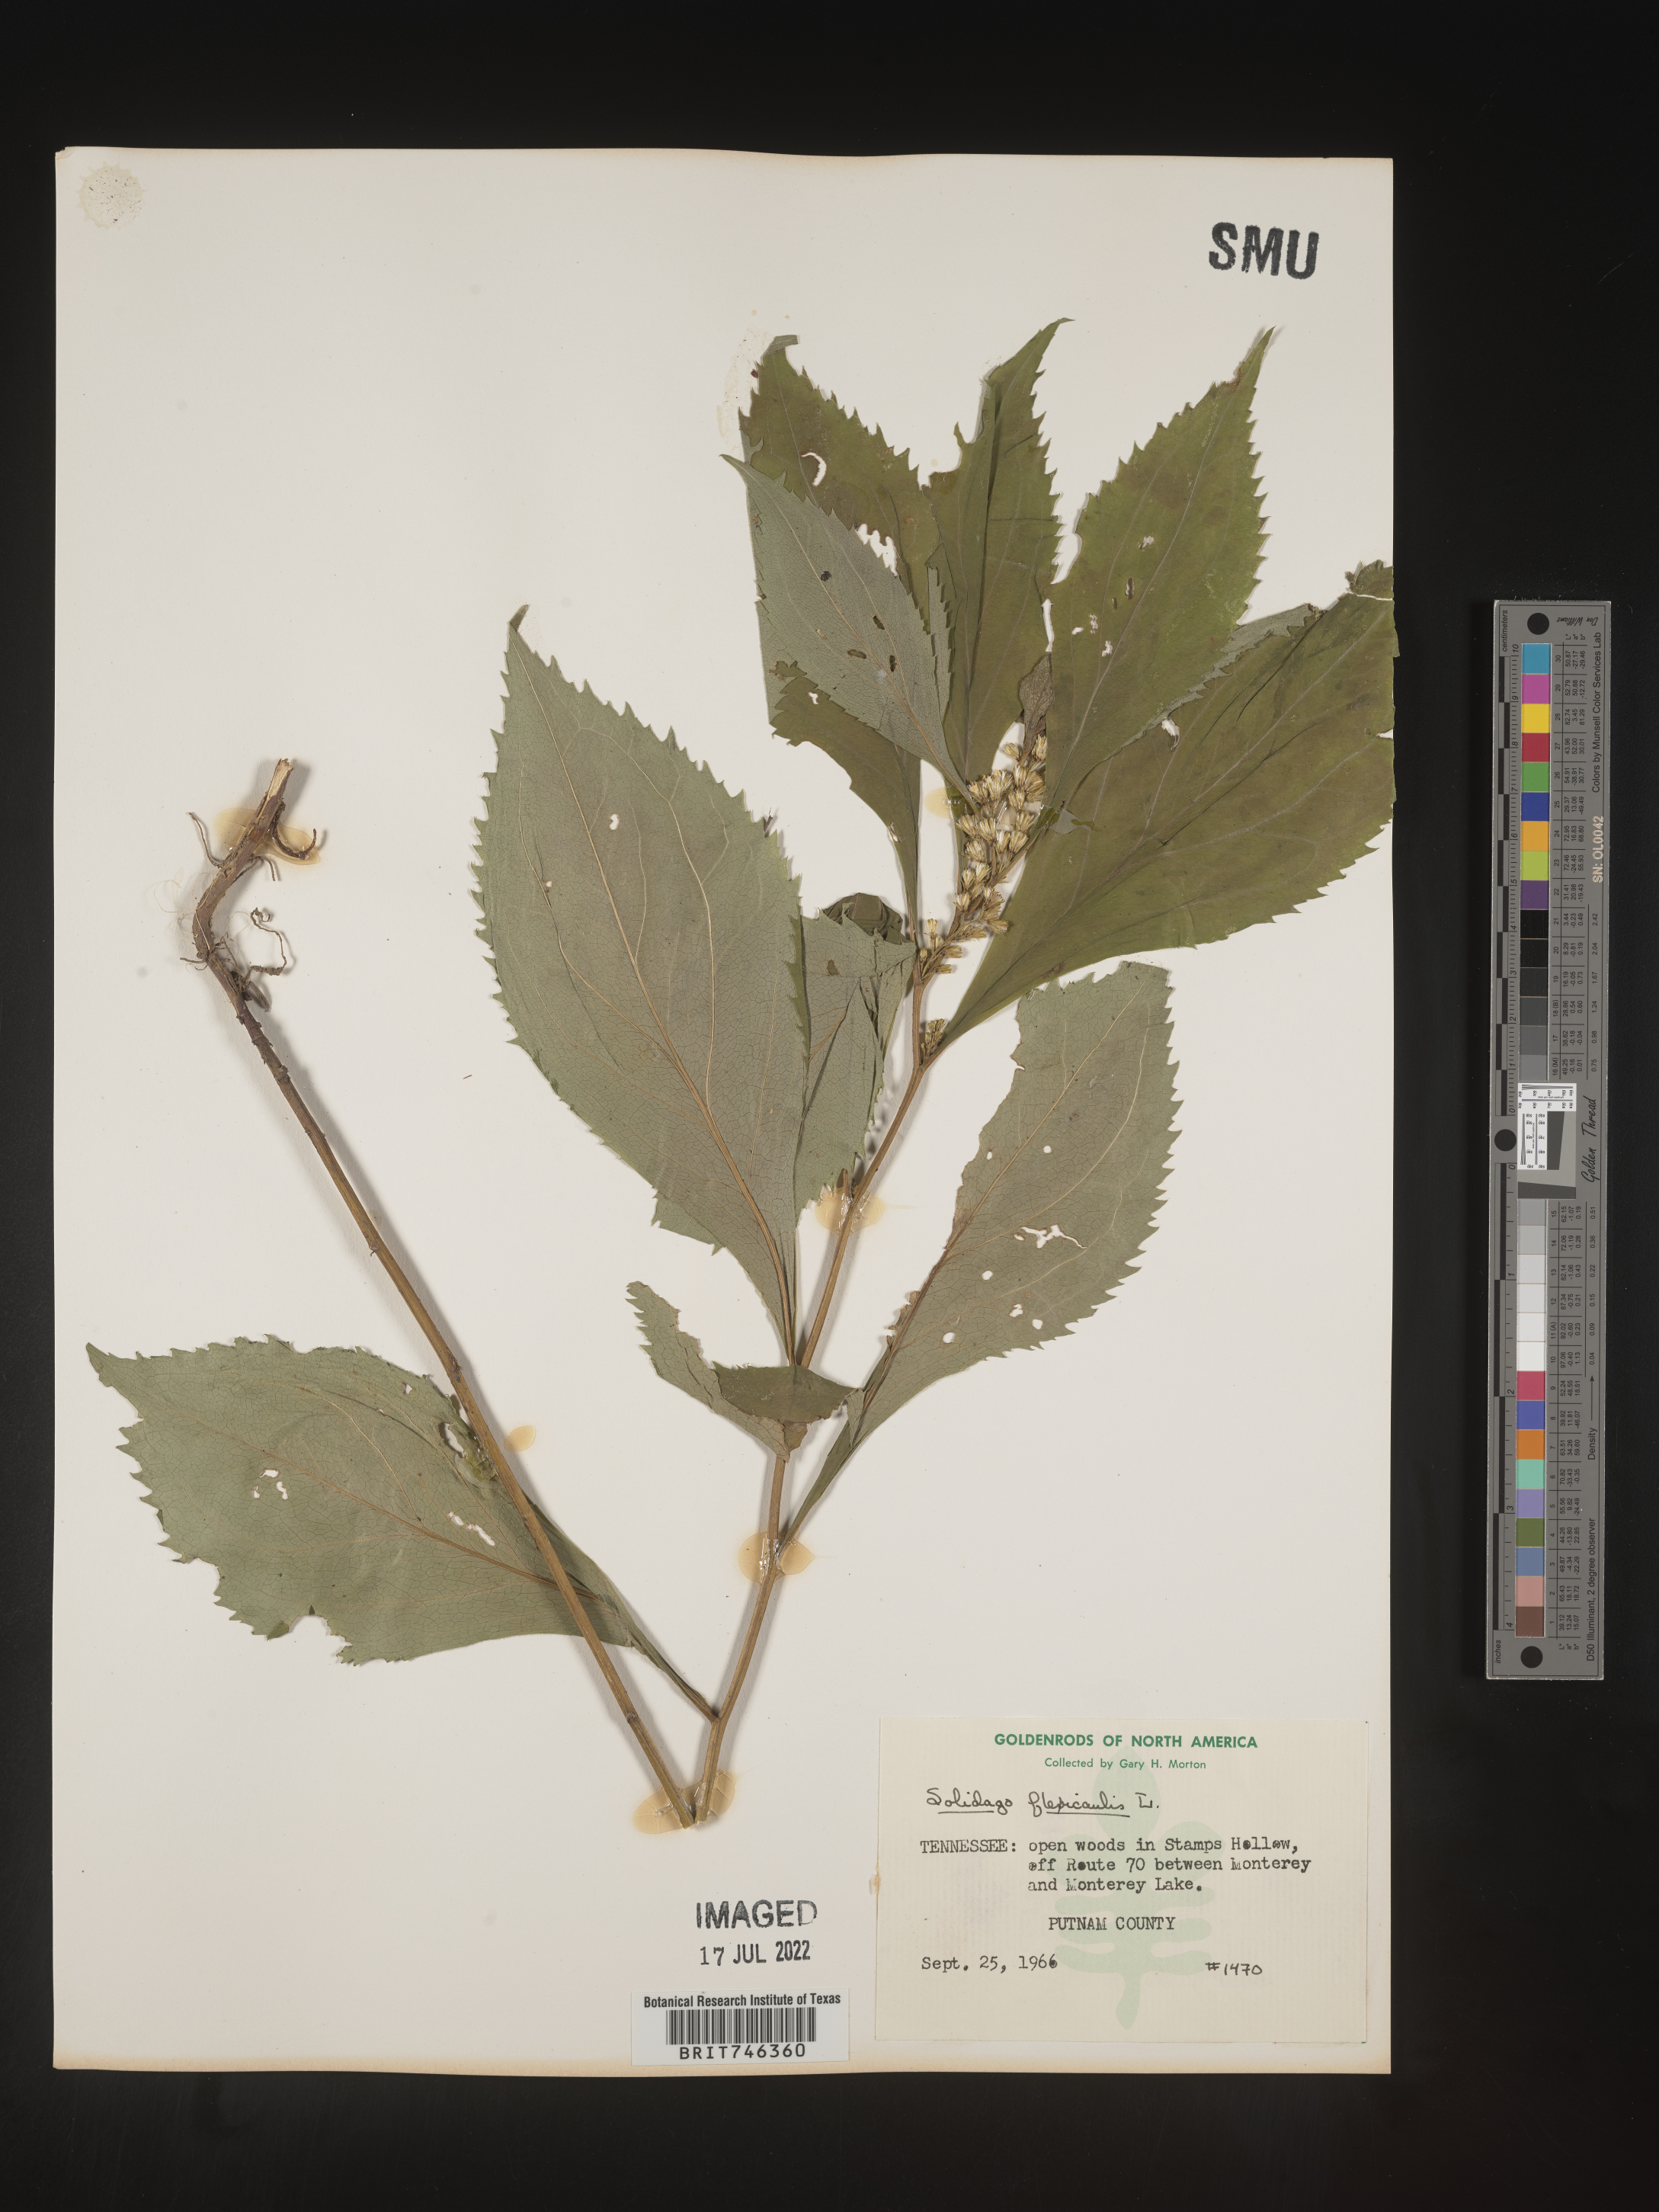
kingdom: Plantae
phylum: Tracheophyta
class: Magnoliopsida
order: Asterales
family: Asteraceae
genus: Solidago
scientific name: Solidago flexicaulis
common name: Zig-zag goldenrod
